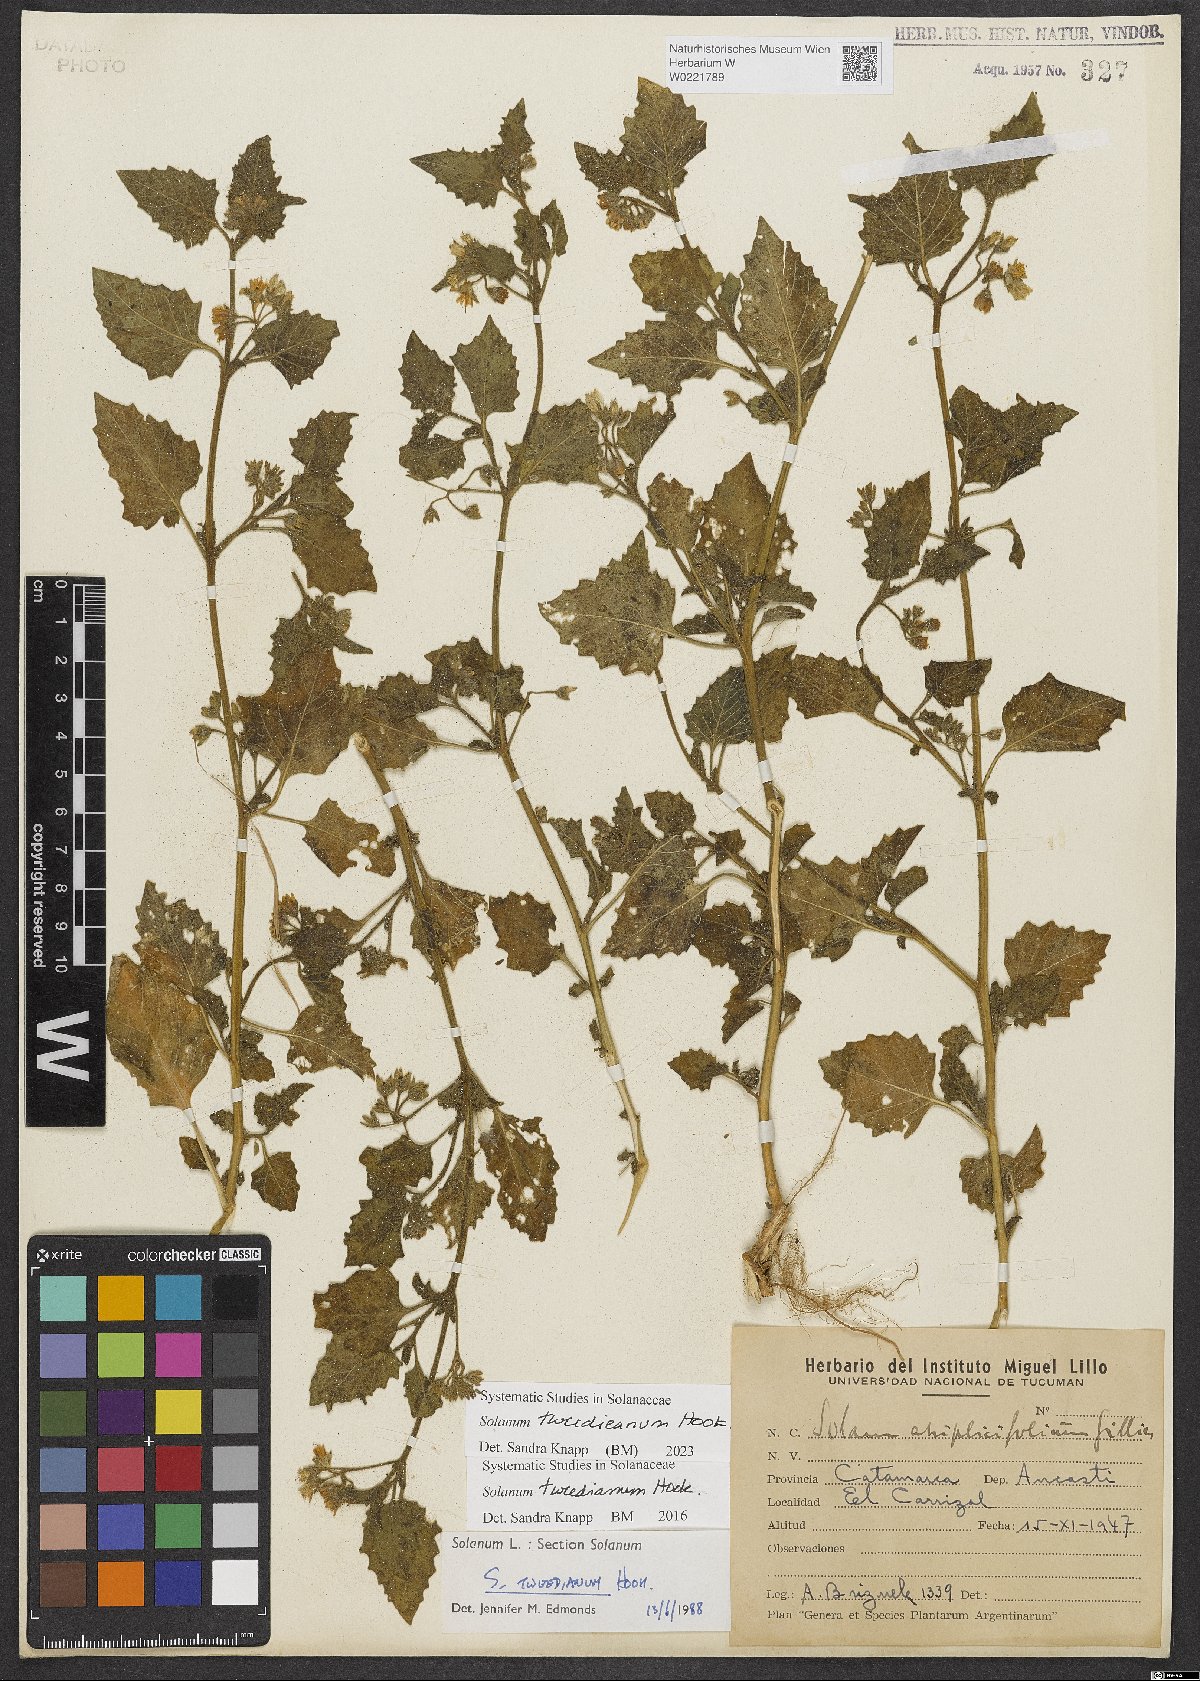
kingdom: Plantae
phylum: Tracheophyta
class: Magnoliopsida
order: Solanales
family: Solanaceae
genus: Solanum
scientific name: Solanum tweedieanum
